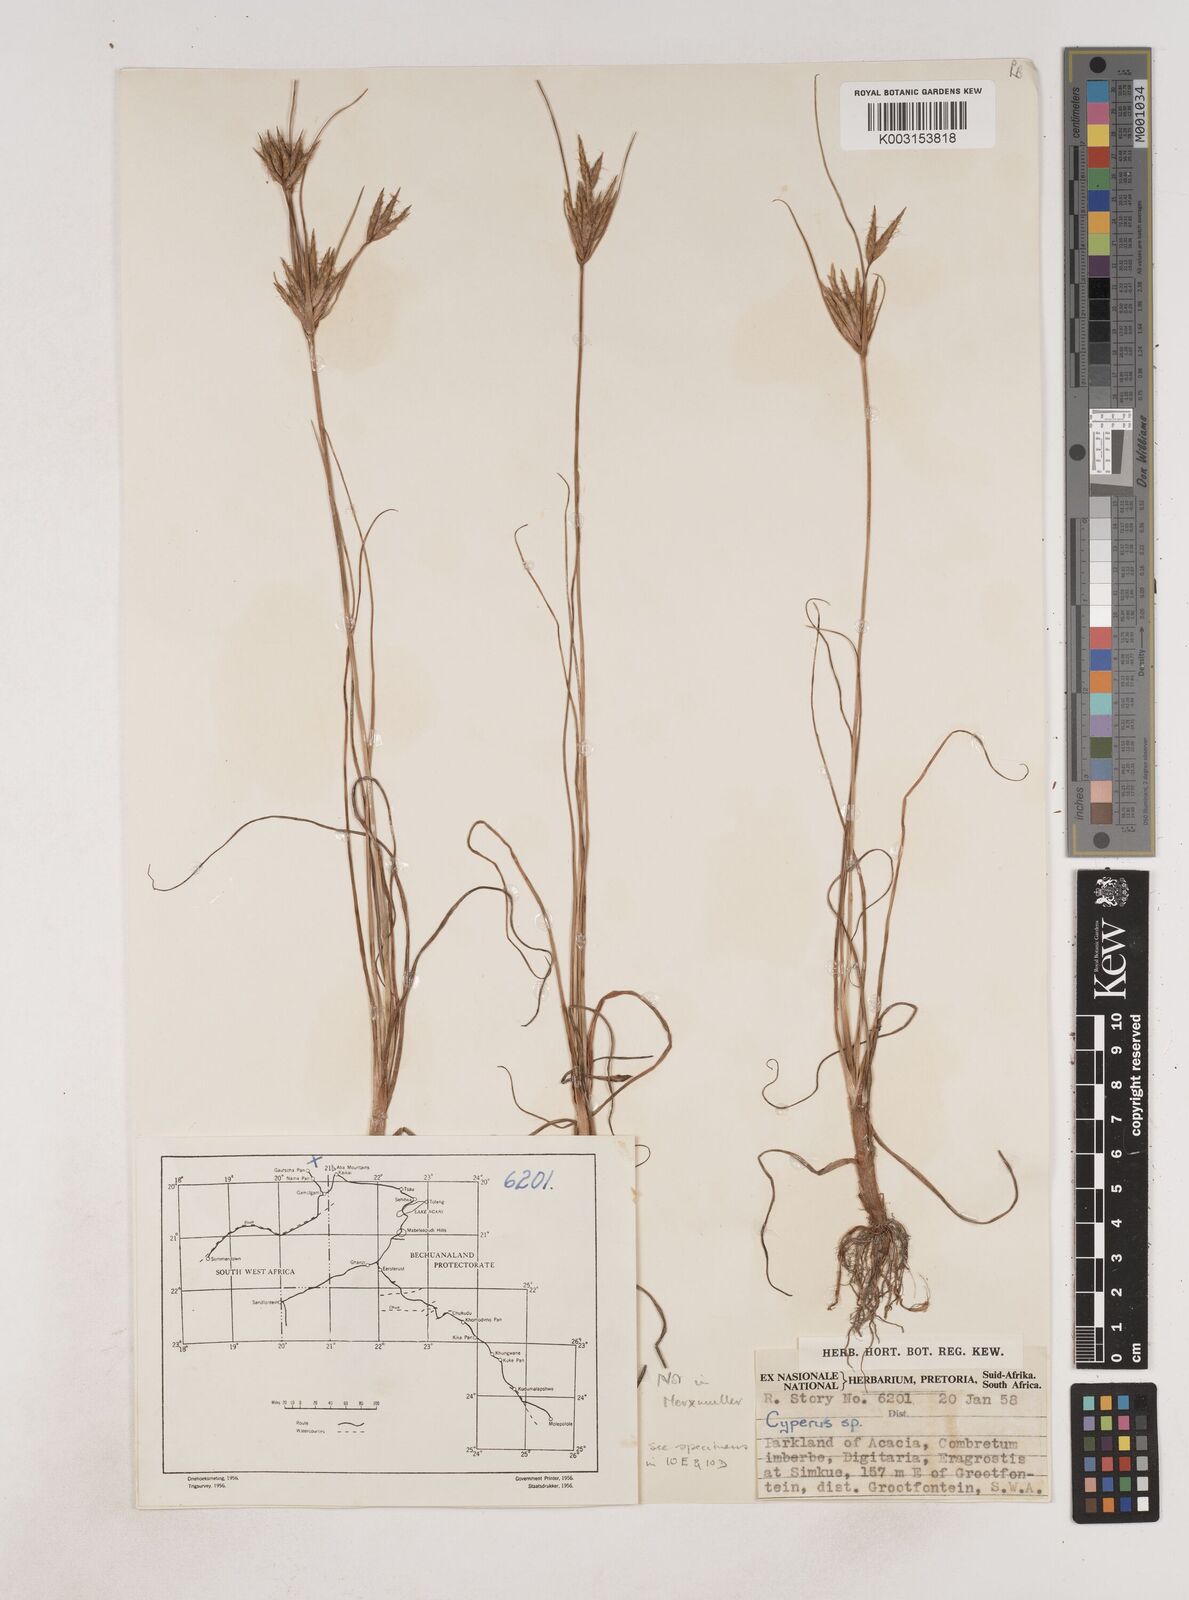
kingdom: Plantae
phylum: Tracheophyta
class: Liliopsida
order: Poales
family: Cyperaceae
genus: Cyperus
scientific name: Cyperus
